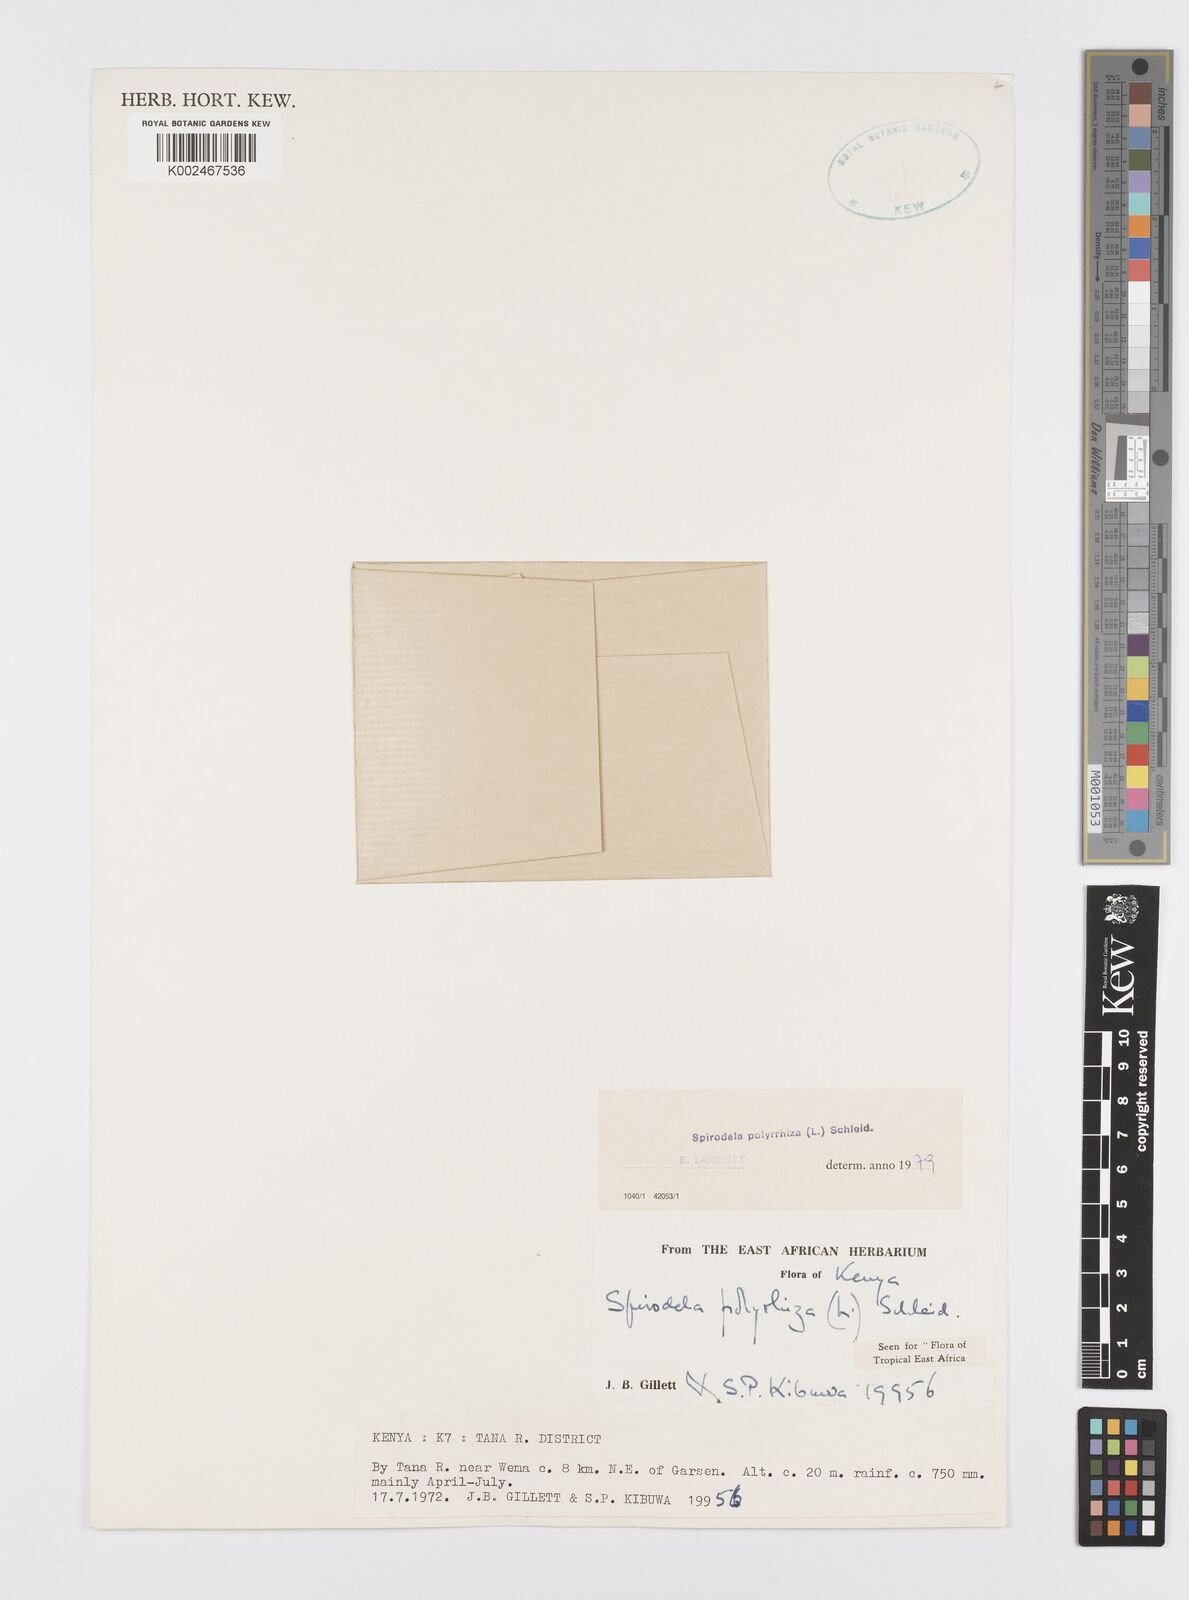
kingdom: Plantae
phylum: Tracheophyta
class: Liliopsida
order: Alismatales
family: Araceae
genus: Spirodela
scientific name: Spirodela polyrhiza
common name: Great duckweed
